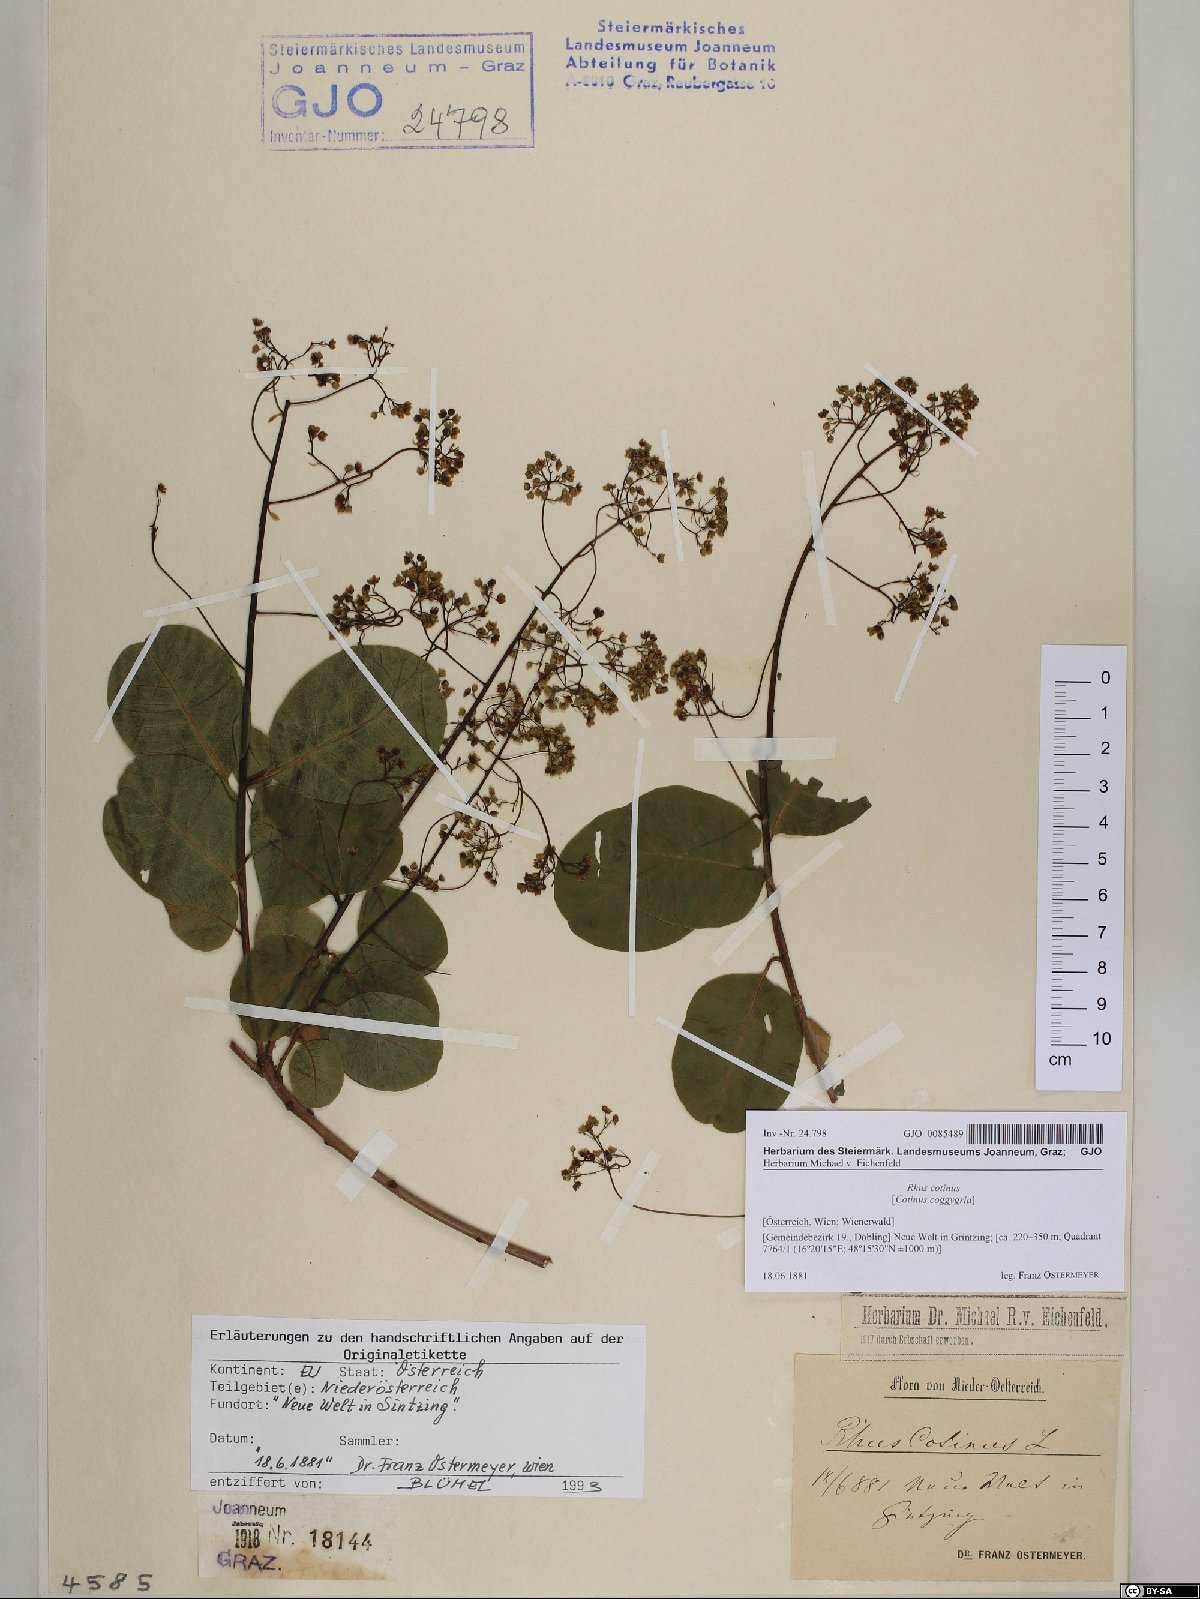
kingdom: Plantae
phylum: Tracheophyta
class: Magnoliopsida
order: Sapindales
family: Anacardiaceae
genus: Cotinus
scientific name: Cotinus coggygria
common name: Smoke-tree
